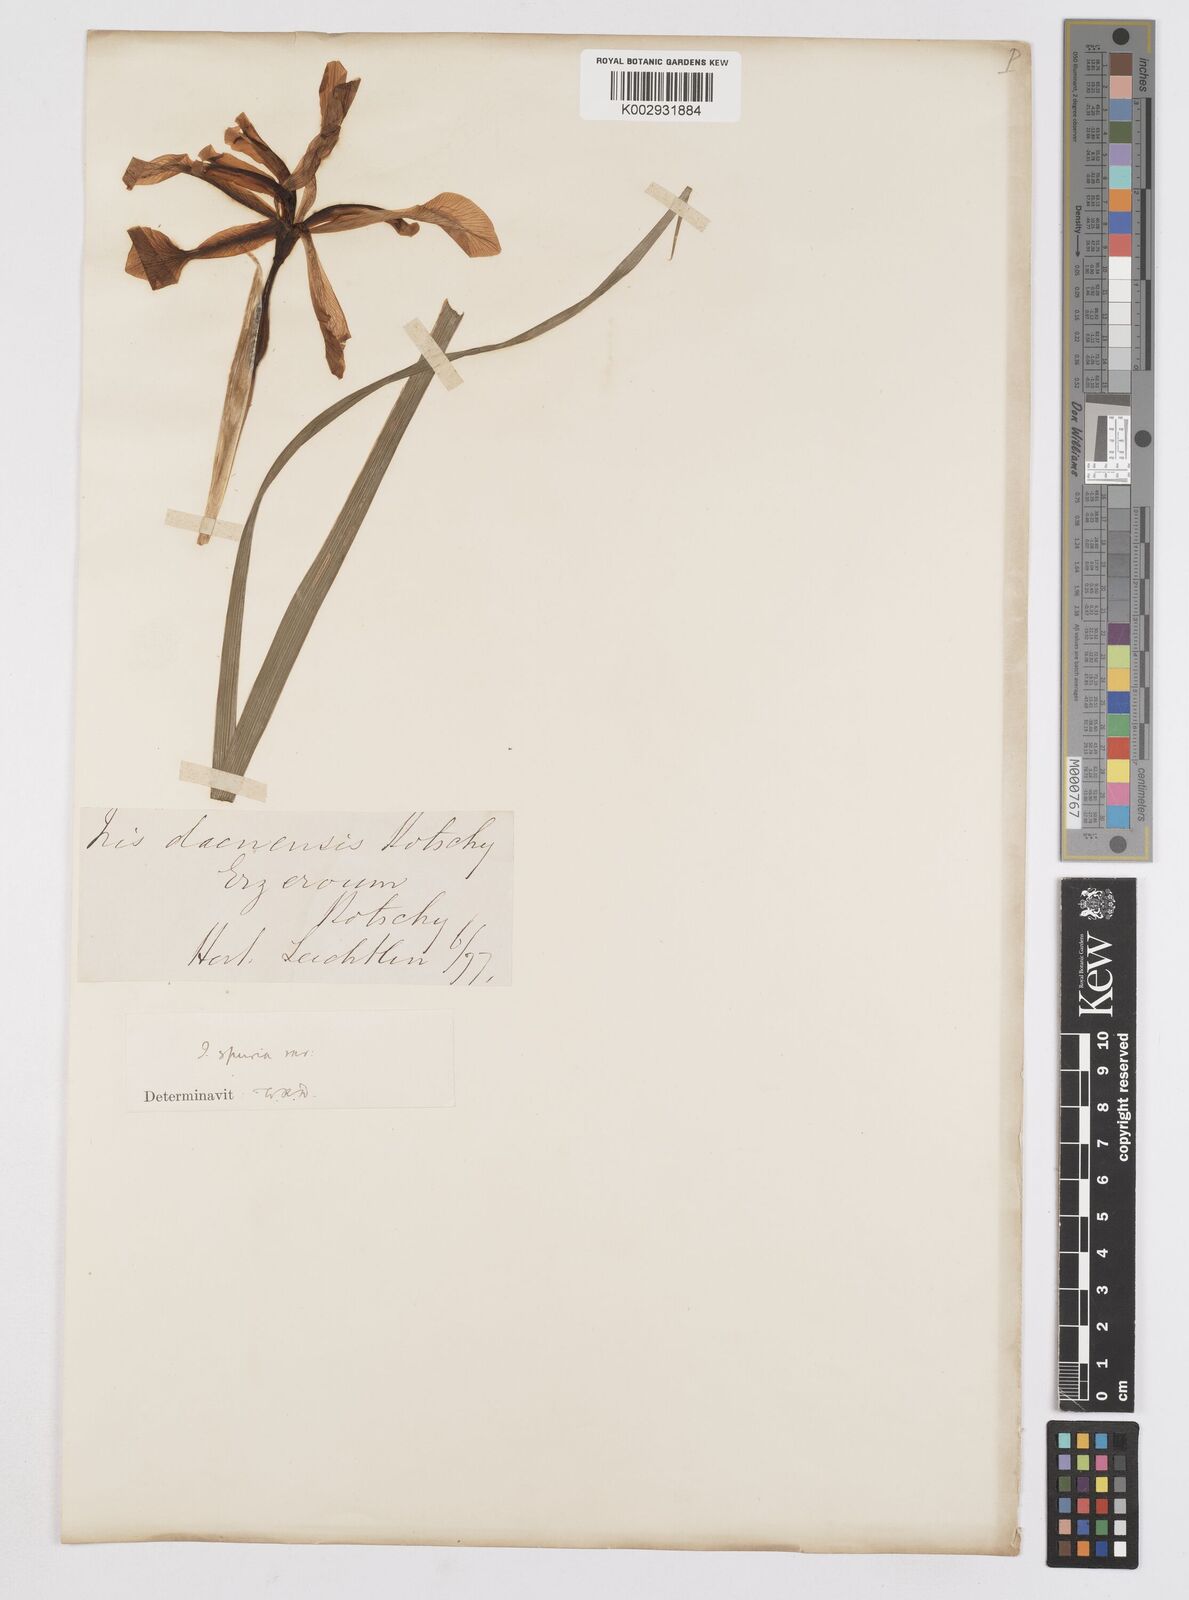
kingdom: Plantae
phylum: Tracheophyta
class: Liliopsida
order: Asparagales
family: Iridaceae
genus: Iris
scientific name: Iris spuria
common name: Blue iris
